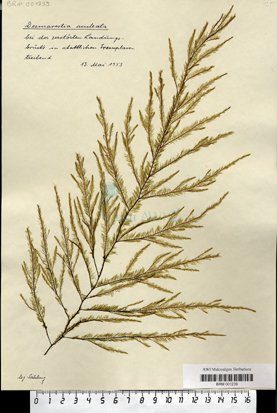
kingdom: Chromista
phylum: Ochrophyta
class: Phaeophyceae
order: Desmarestiales
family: Desmarestiaceae
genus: Desmarestia
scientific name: Desmarestia aculeata
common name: Witch's hair
